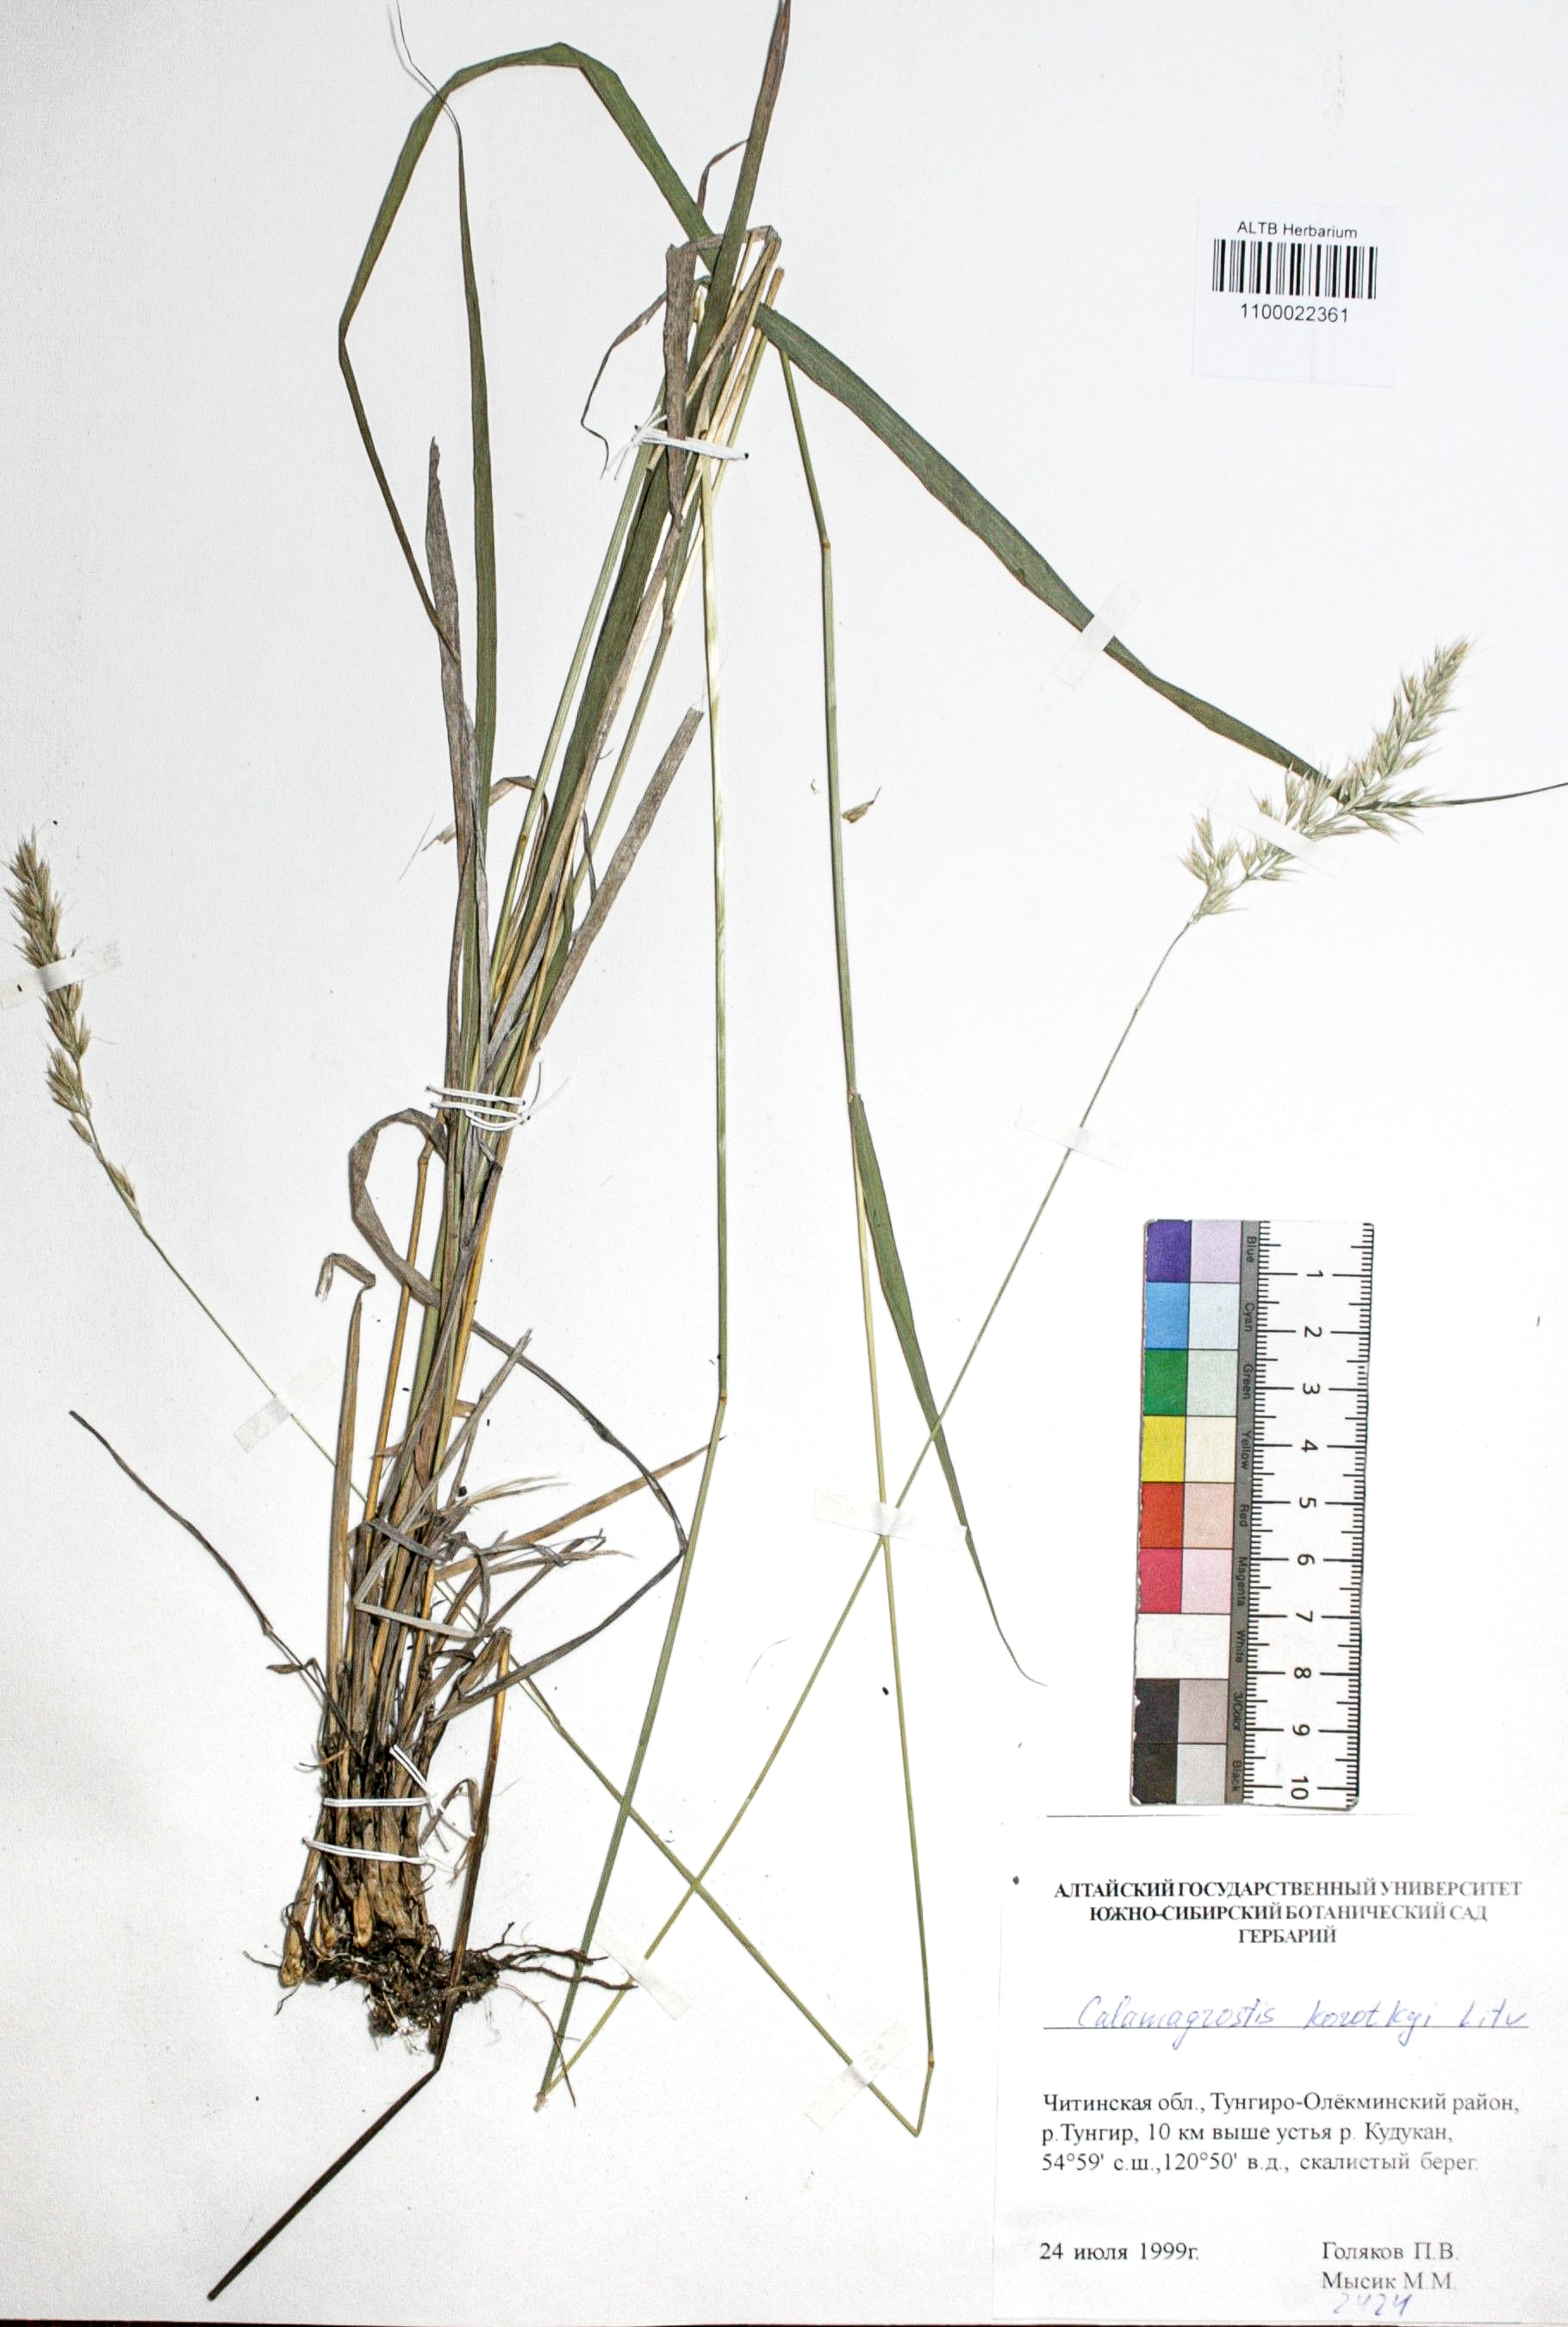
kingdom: Plantae
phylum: Tracheophyta
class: Liliopsida
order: Poales
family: Poaceae
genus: Calamagrostis
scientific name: Calamagrostis korotkyi
